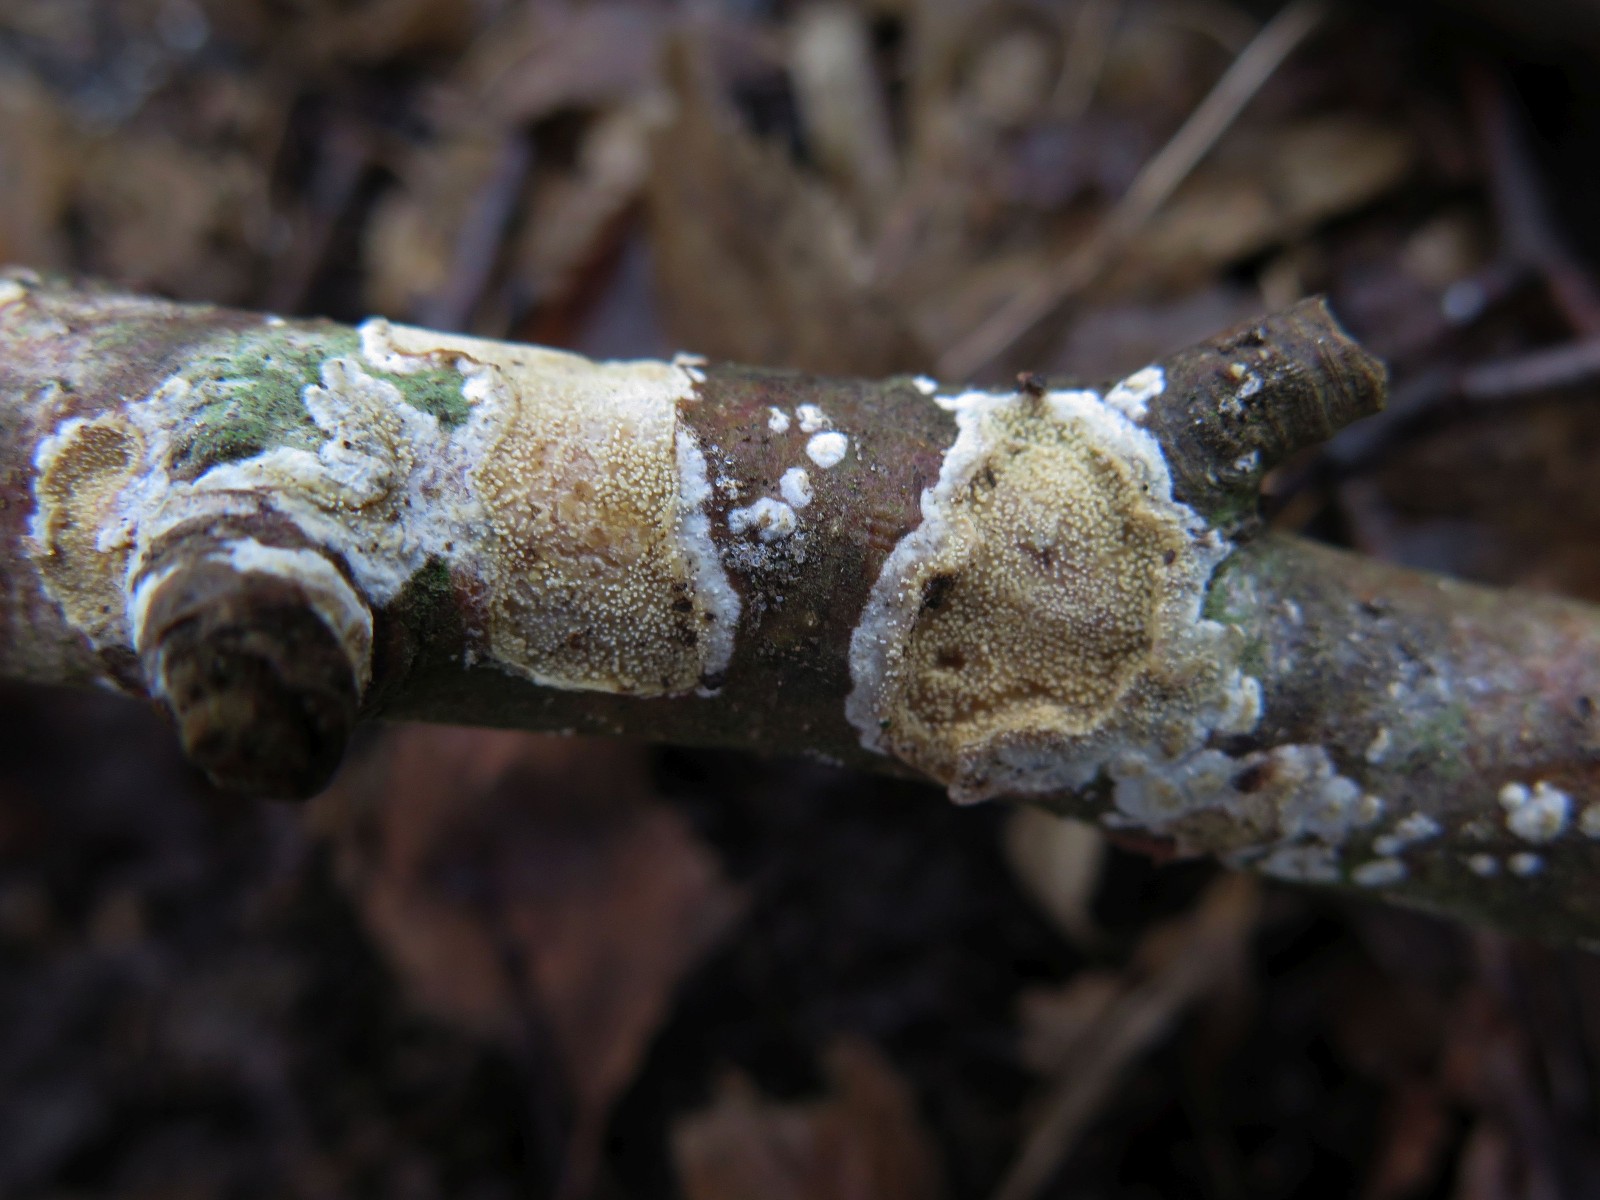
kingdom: Fungi
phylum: Basidiomycota
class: Agaricomycetes
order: Hymenochaetales
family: Hyphodontiaceae
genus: Hyphodontia
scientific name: Hyphodontia arguta
